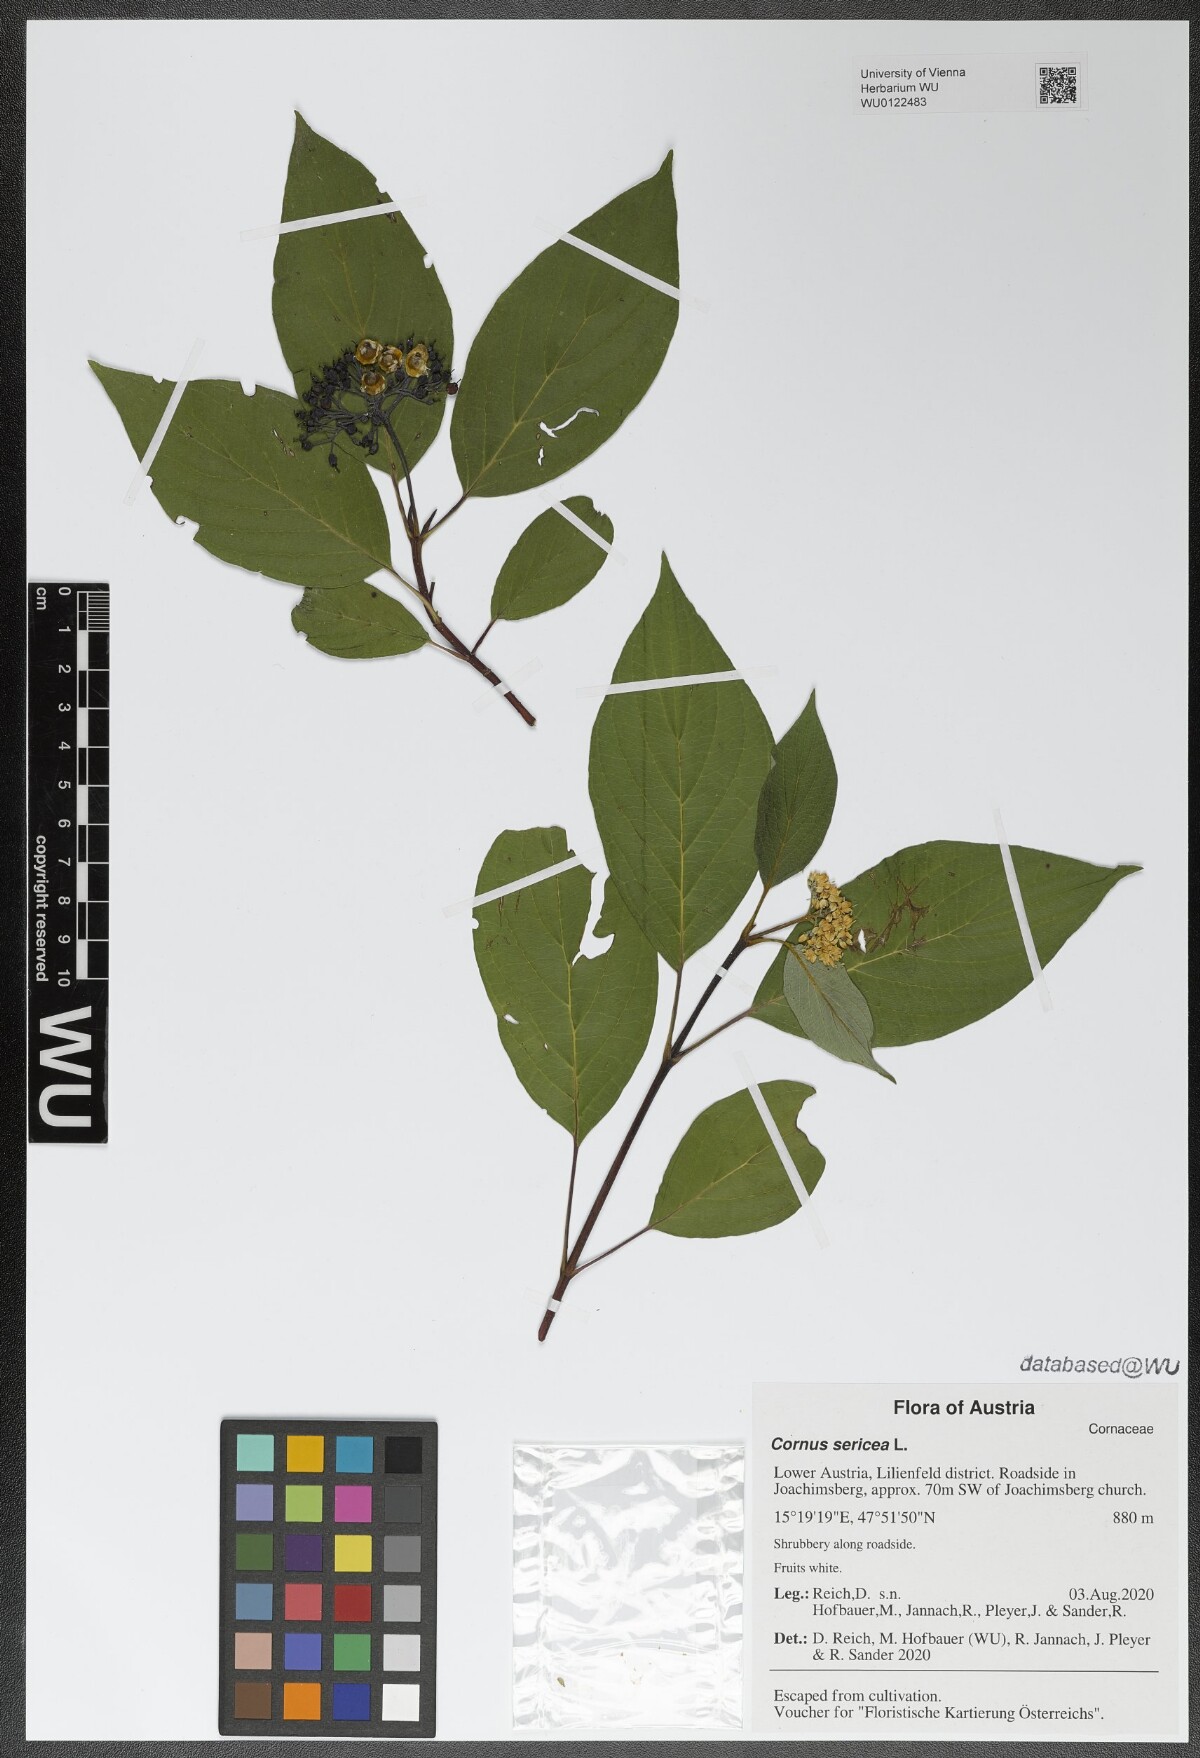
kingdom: Plantae
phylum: Tracheophyta
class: Magnoliopsida
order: Cornales
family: Cornaceae
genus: Cornus
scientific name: Cornus sericea
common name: Red-osier dogwood
